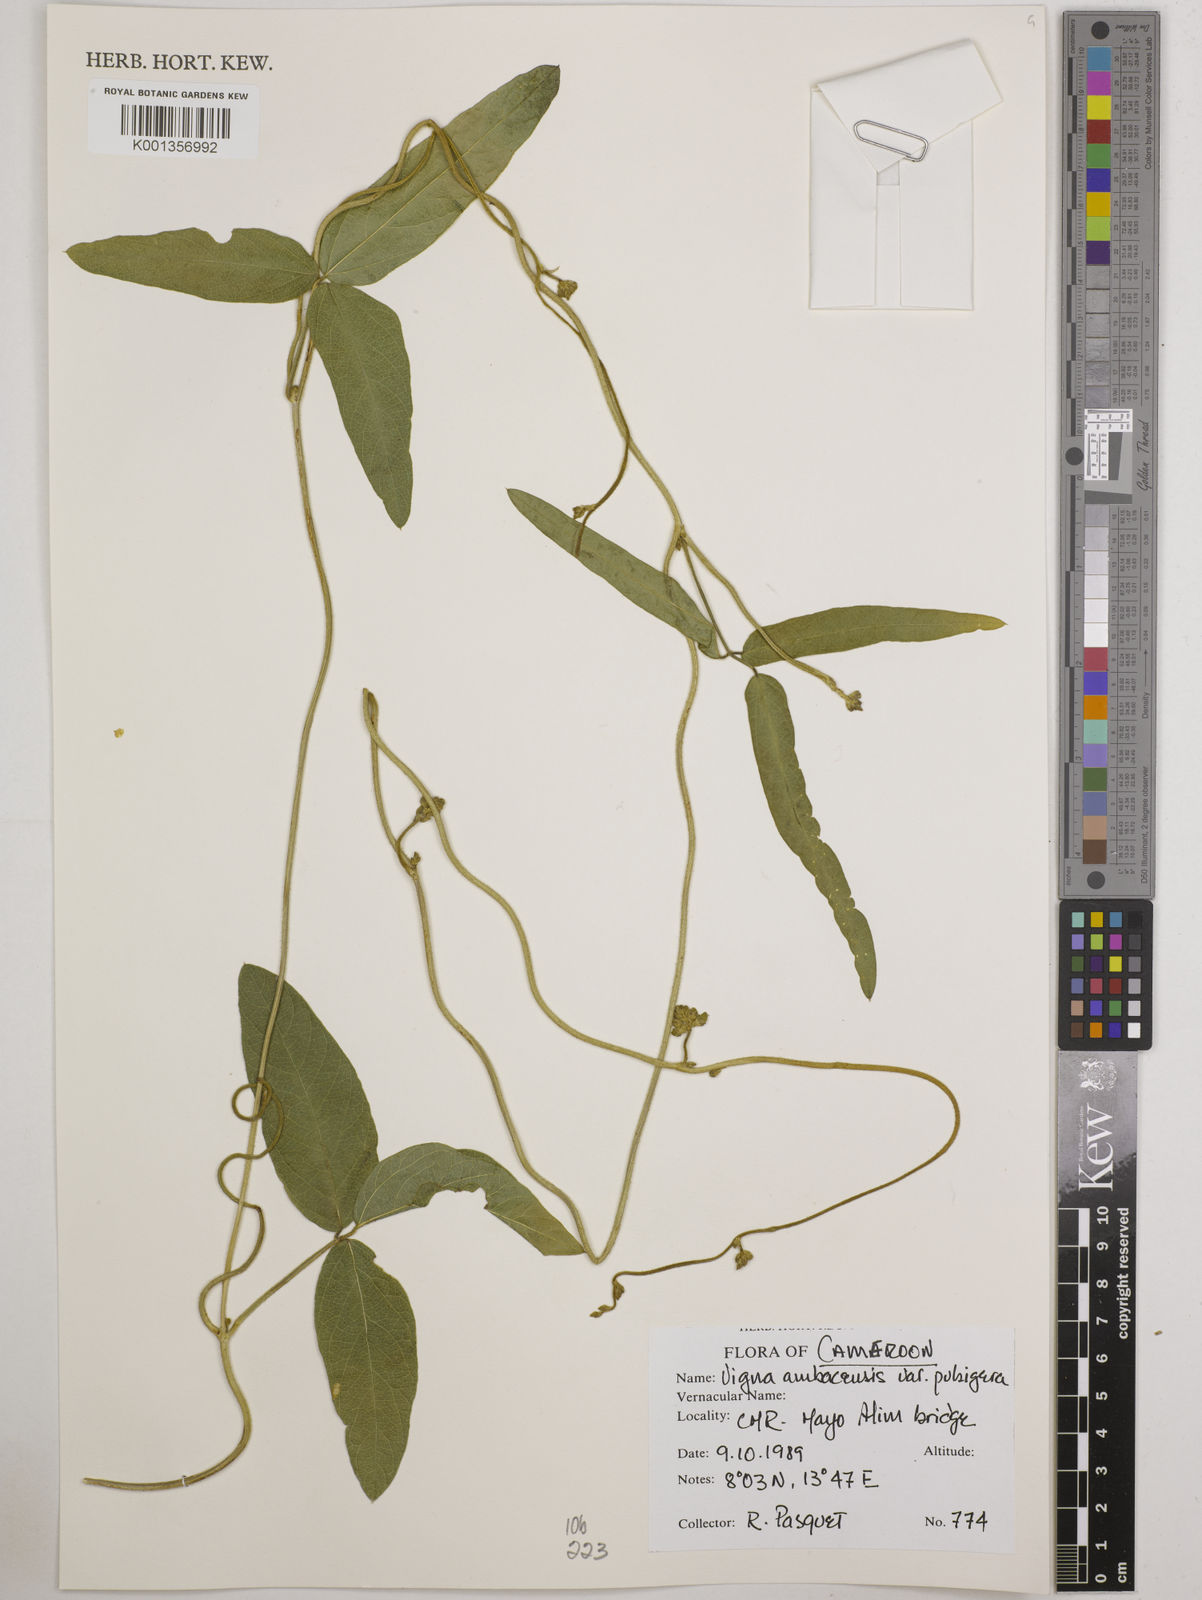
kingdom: Plantae
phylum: Tracheophyta
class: Magnoliopsida
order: Fabales
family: Fabaceae
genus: Vigna
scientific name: Vigna pubigera
